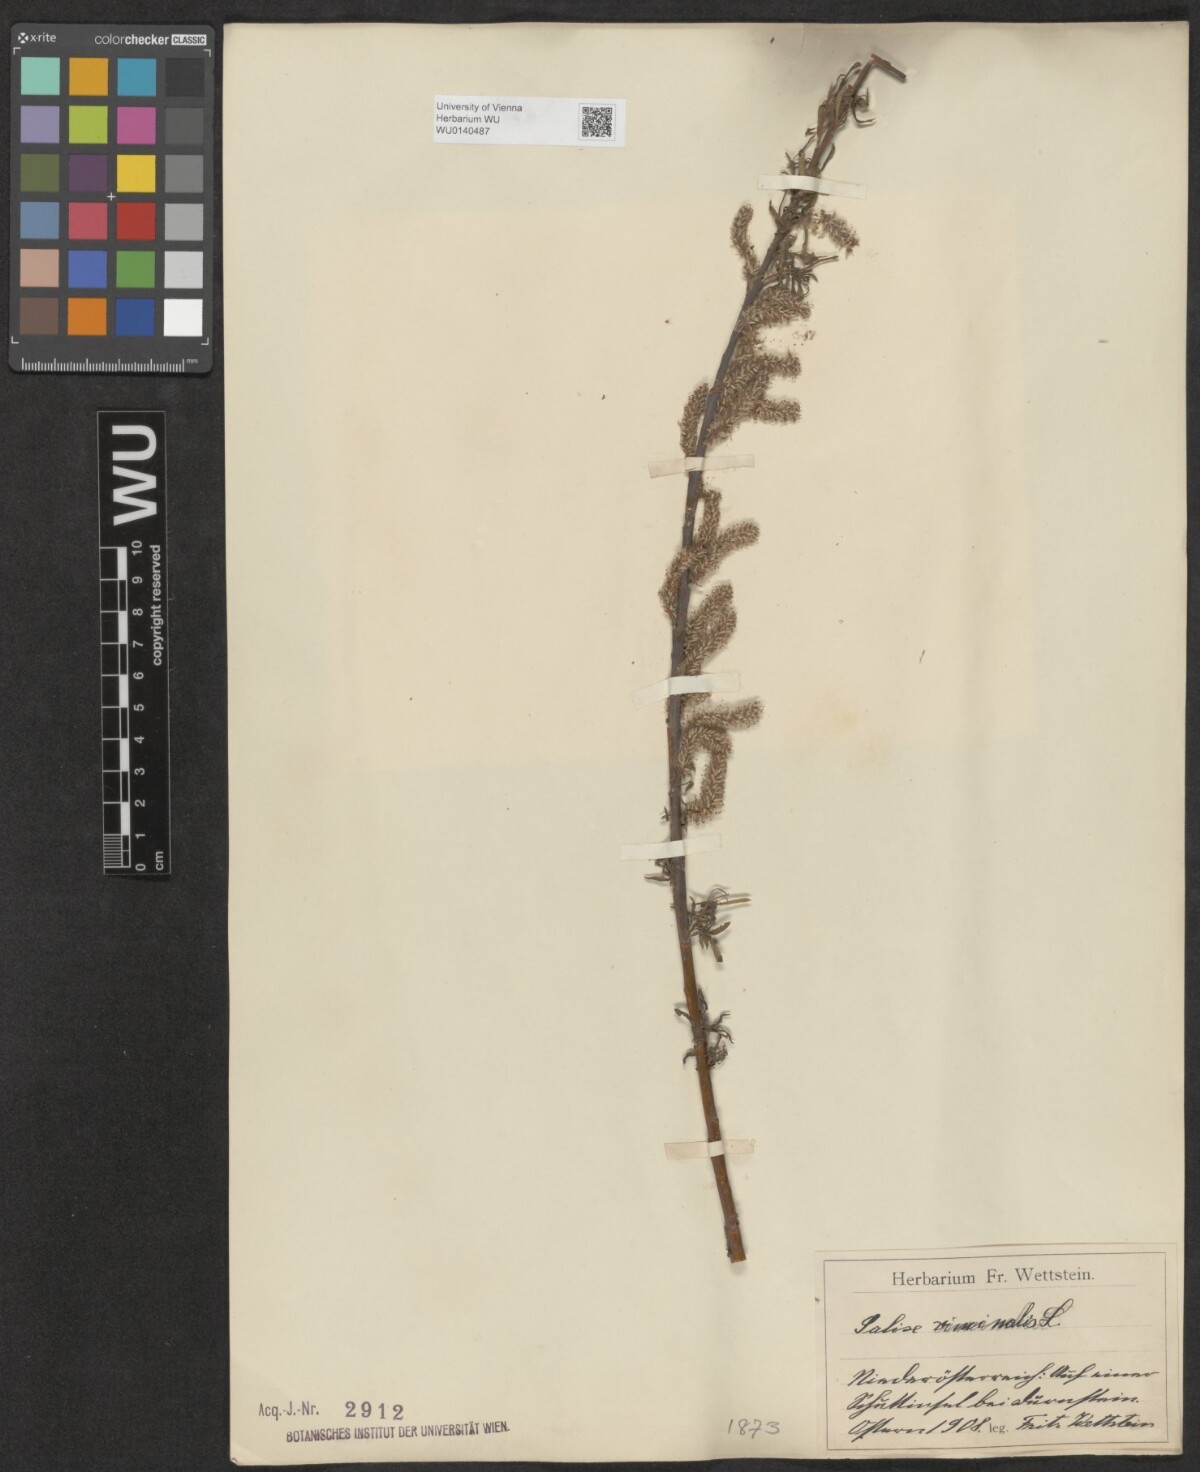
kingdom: Plantae
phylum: Tracheophyta
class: Magnoliopsida
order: Malpighiales
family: Salicaceae
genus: Salix
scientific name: Salix viminalis
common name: Osier
